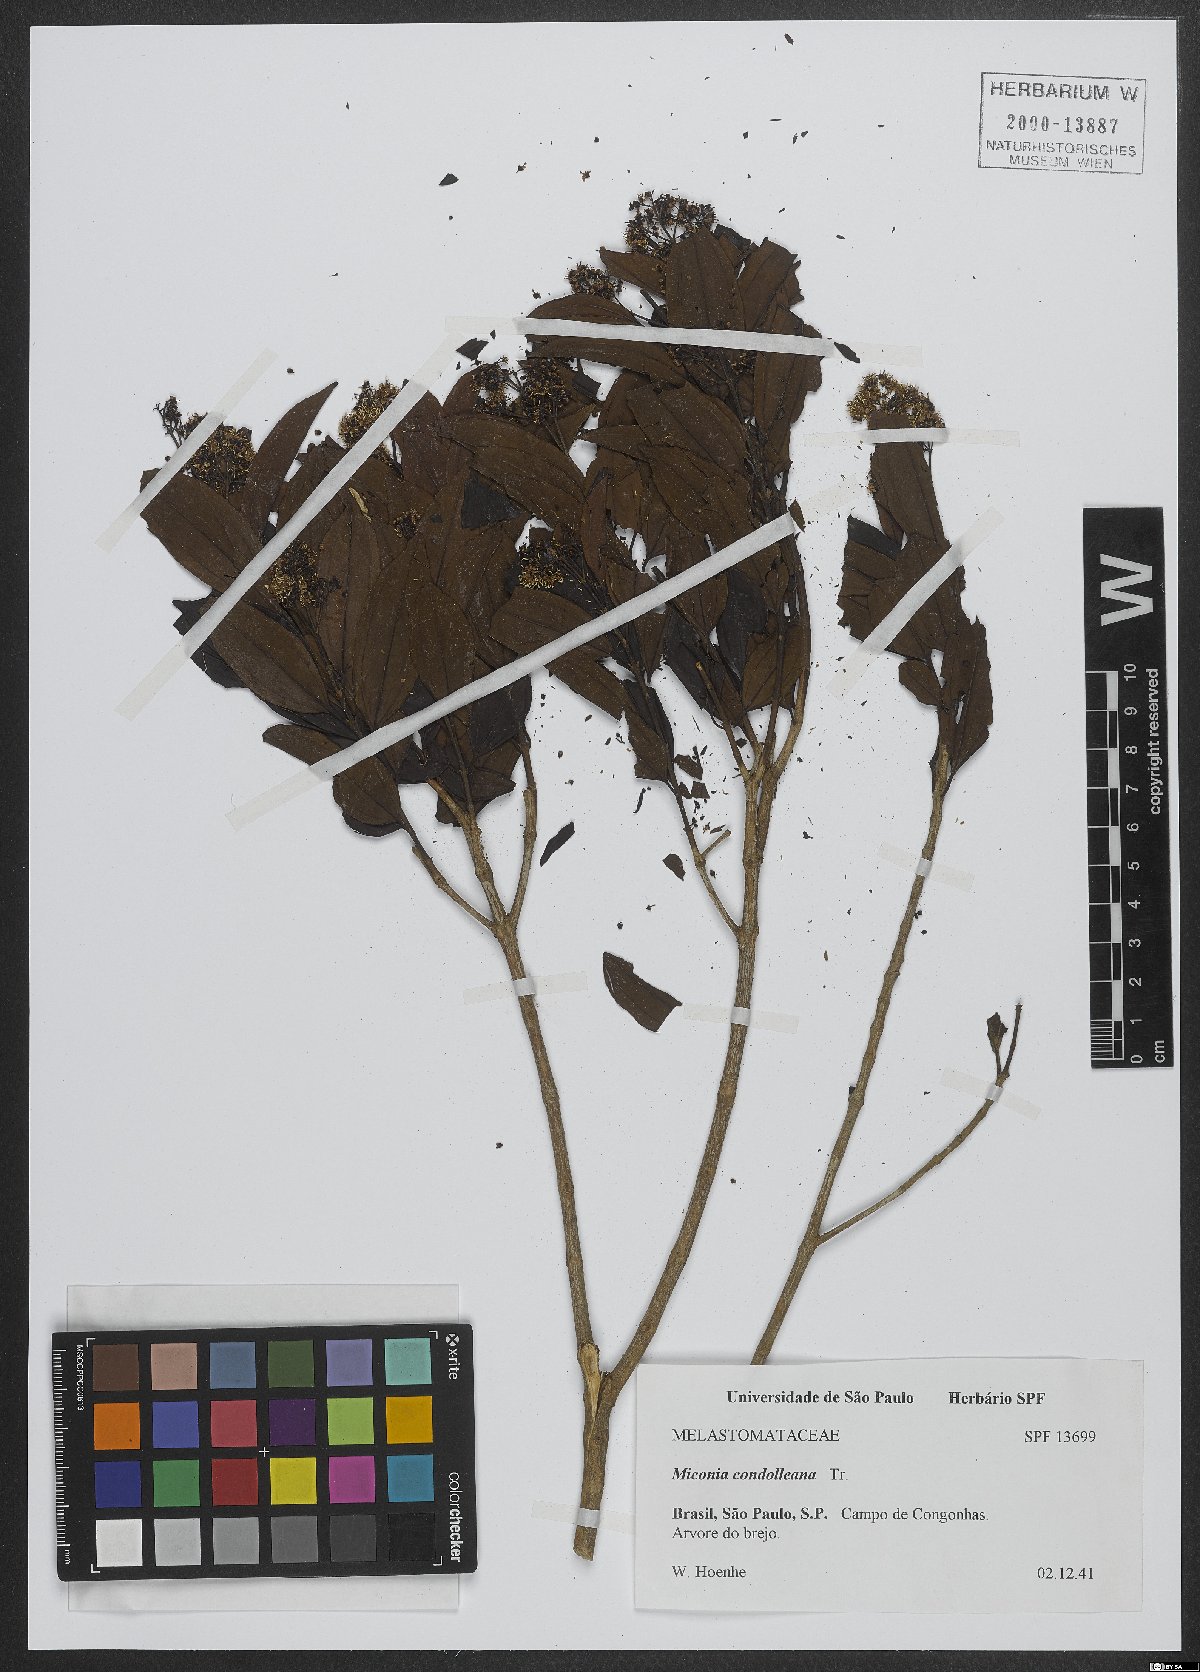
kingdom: Plantae
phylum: Tracheophyta
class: Magnoliopsida
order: Myrtales
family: Melastomataceae
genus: Miconia
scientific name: Miconia cinnamomifolia
